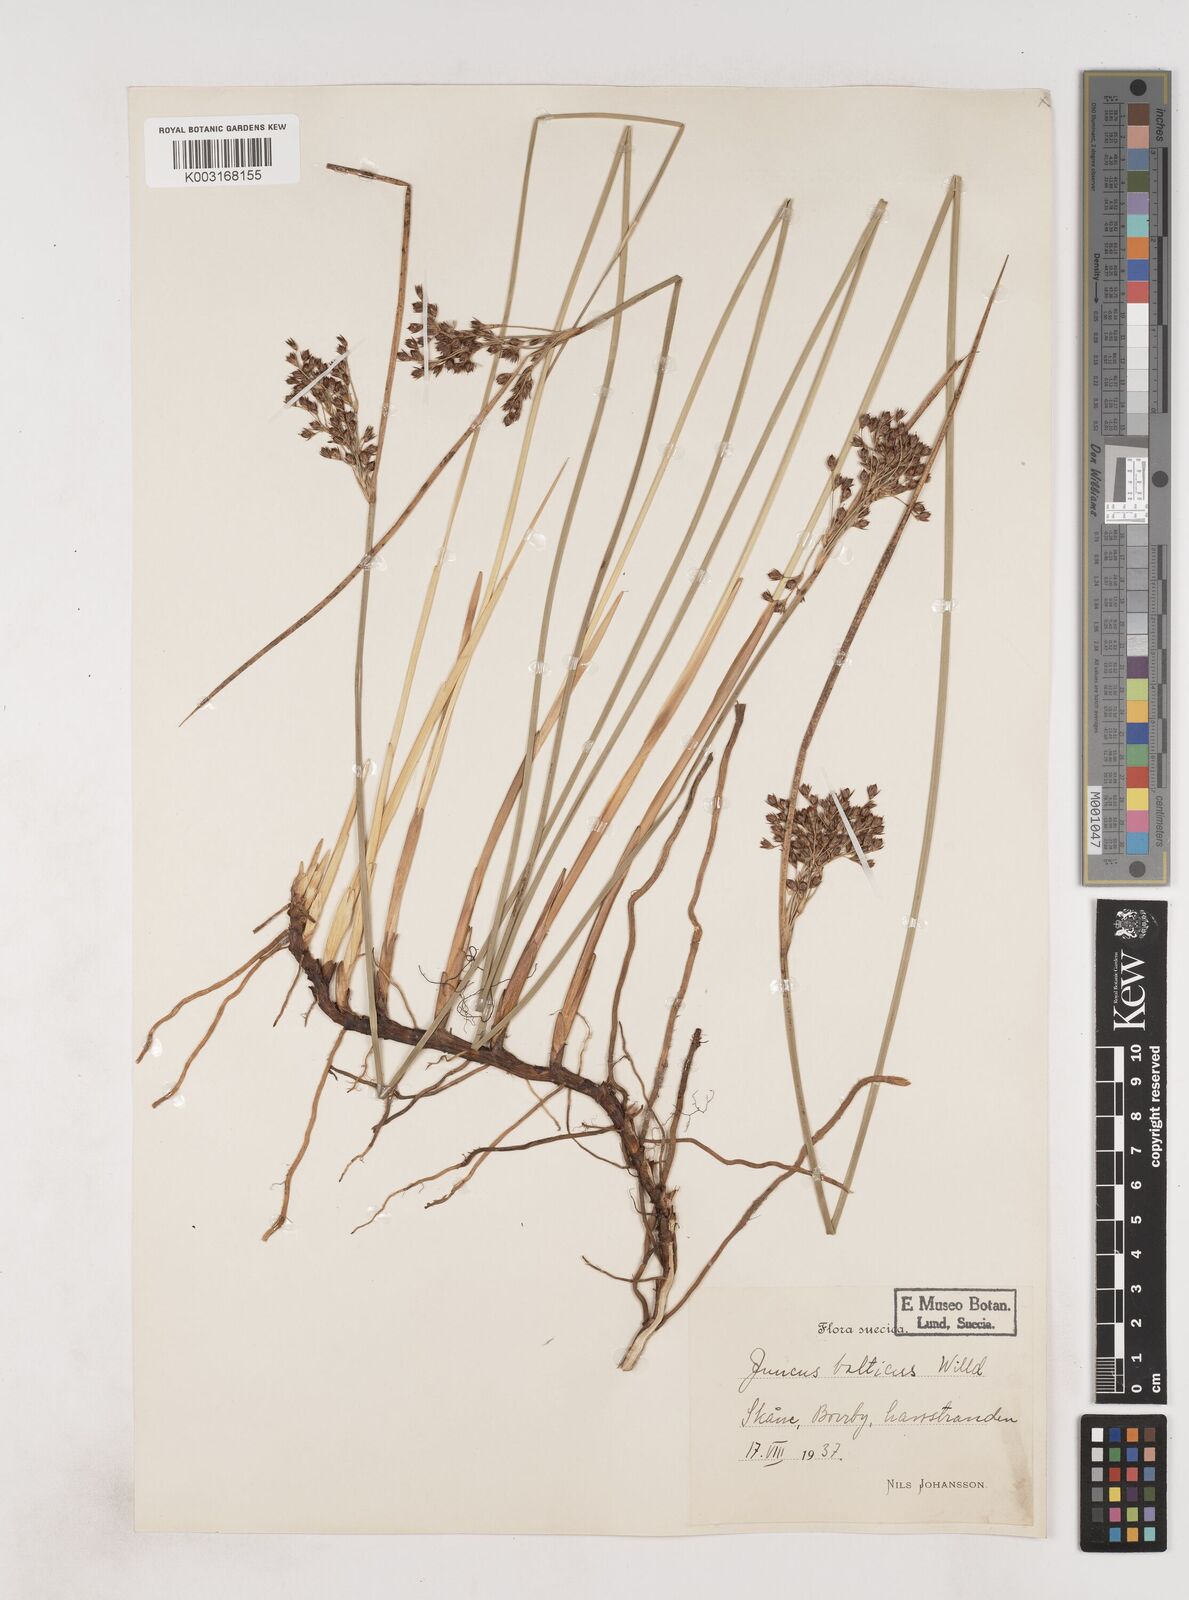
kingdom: Plantae
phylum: Tracheophyta
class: Liliopsida
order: Poales
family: Juncaceae
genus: Juncus
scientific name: Juncus balticus
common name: Baltic rush
